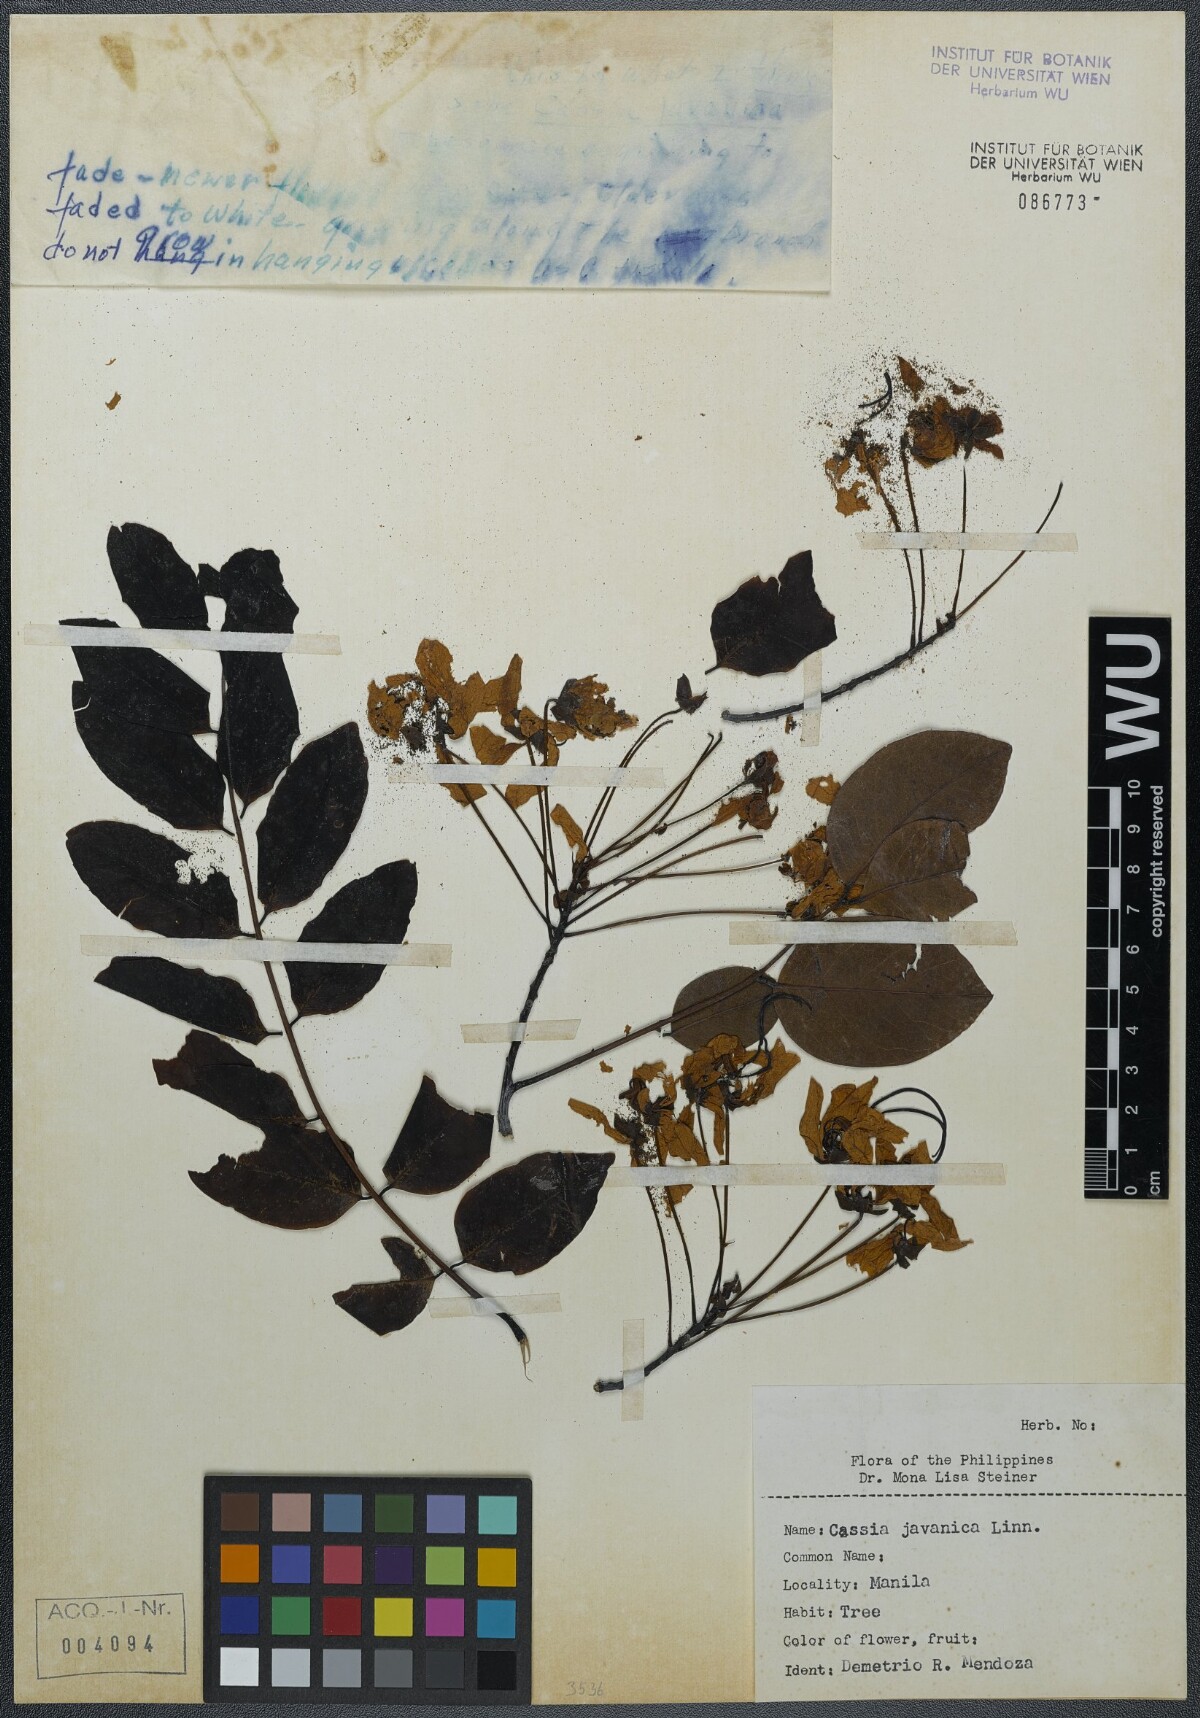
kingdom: Plantae
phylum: Tracheophyta
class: Magnoliopsida
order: Fabales
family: Fabaceae
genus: Cassia
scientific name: Cassia javanica
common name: Apple blossom
